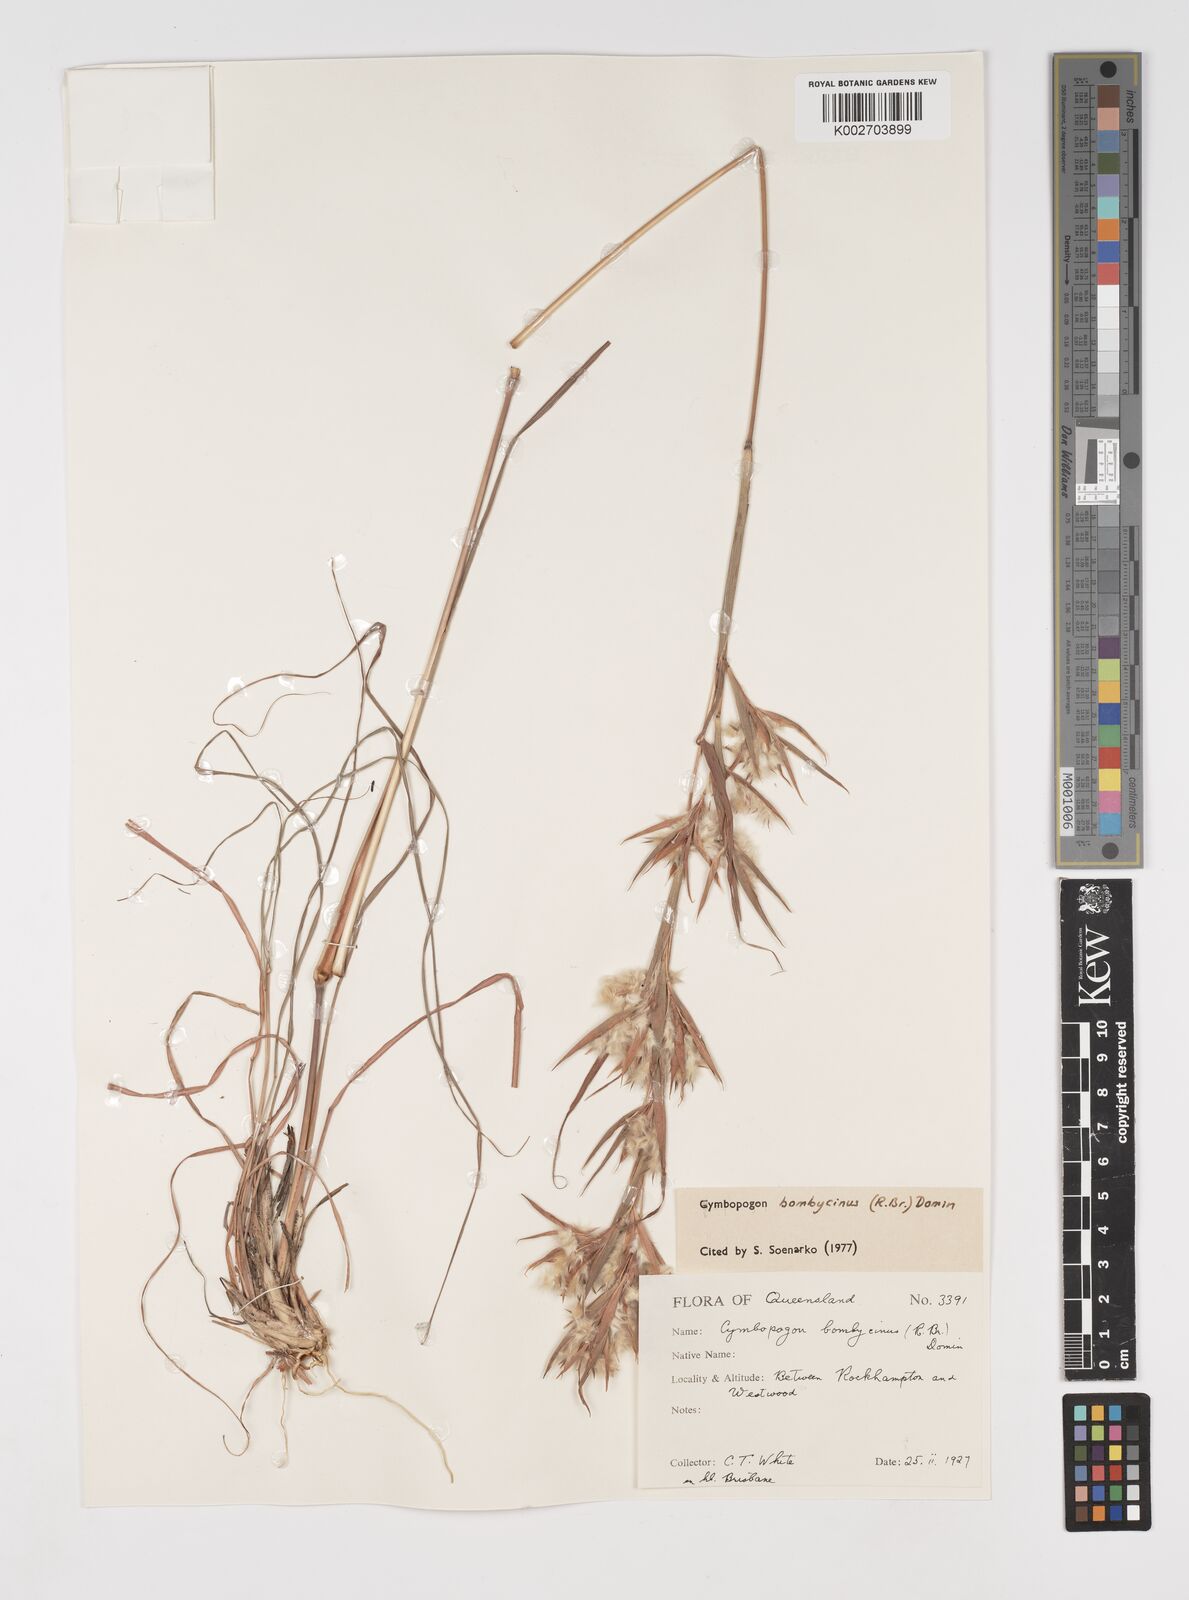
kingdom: Plantae
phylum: Tracheophyta
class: Liliopsida
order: Poales
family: Poaceae
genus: Cymbopogon
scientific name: Cymbopogon bombycinus
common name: Citronella grass
